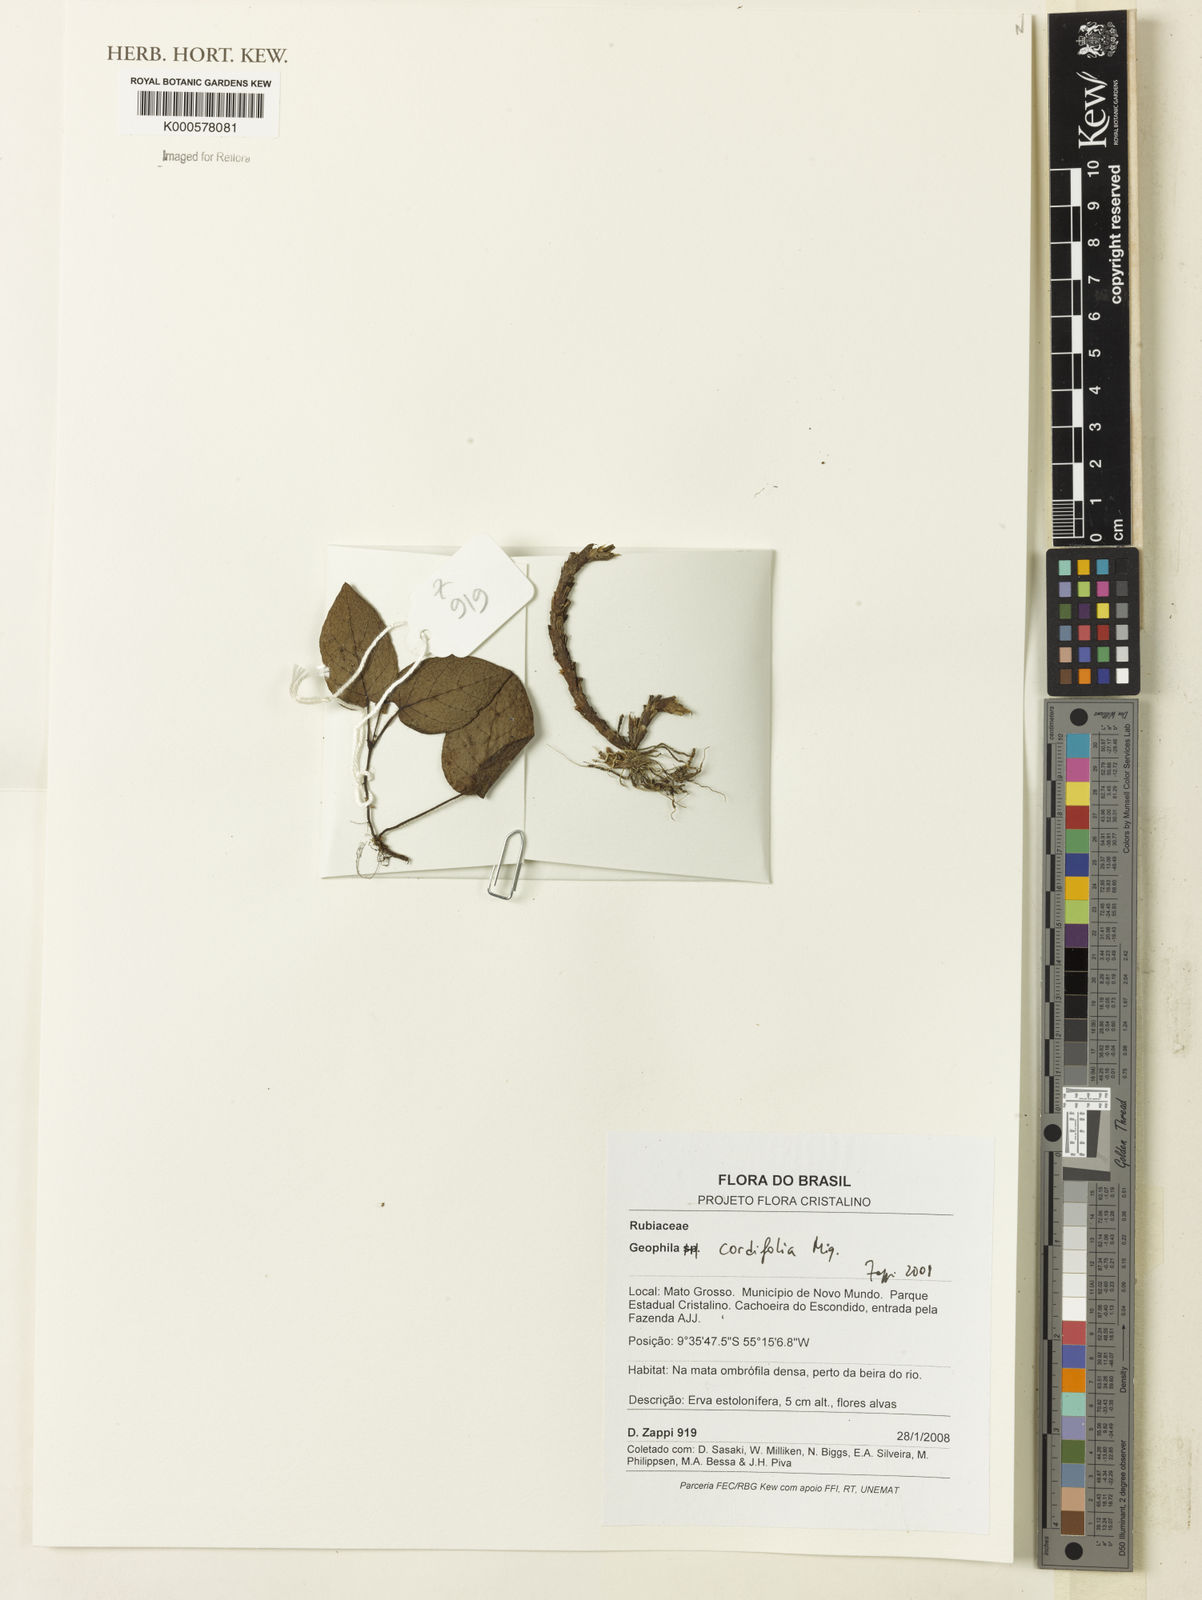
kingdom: Plantae
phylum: Tracheophyta
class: Magnoliopsida
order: Gentianales
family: Rubiaceae
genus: Geophila
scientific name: Geophila cordifolia
